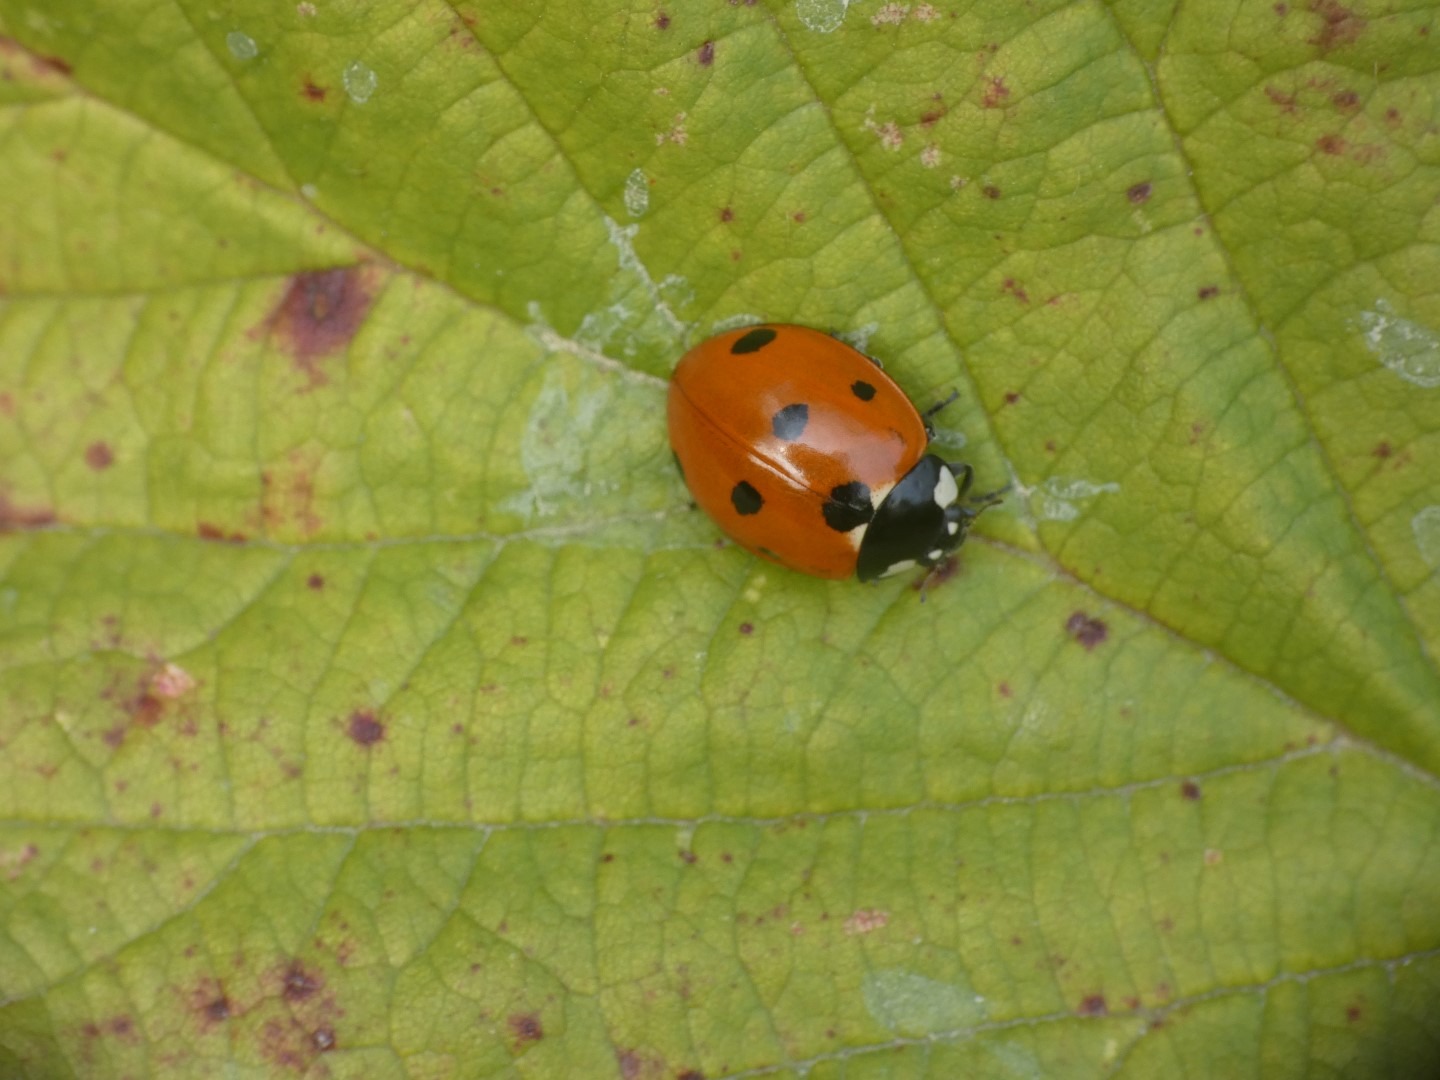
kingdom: Animalia
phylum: Arthropoda
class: Insecta
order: Coleoptera
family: Coccinellidae
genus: Coccinella
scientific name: Coccinella septempunctata
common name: Syvplettet mariehøne
